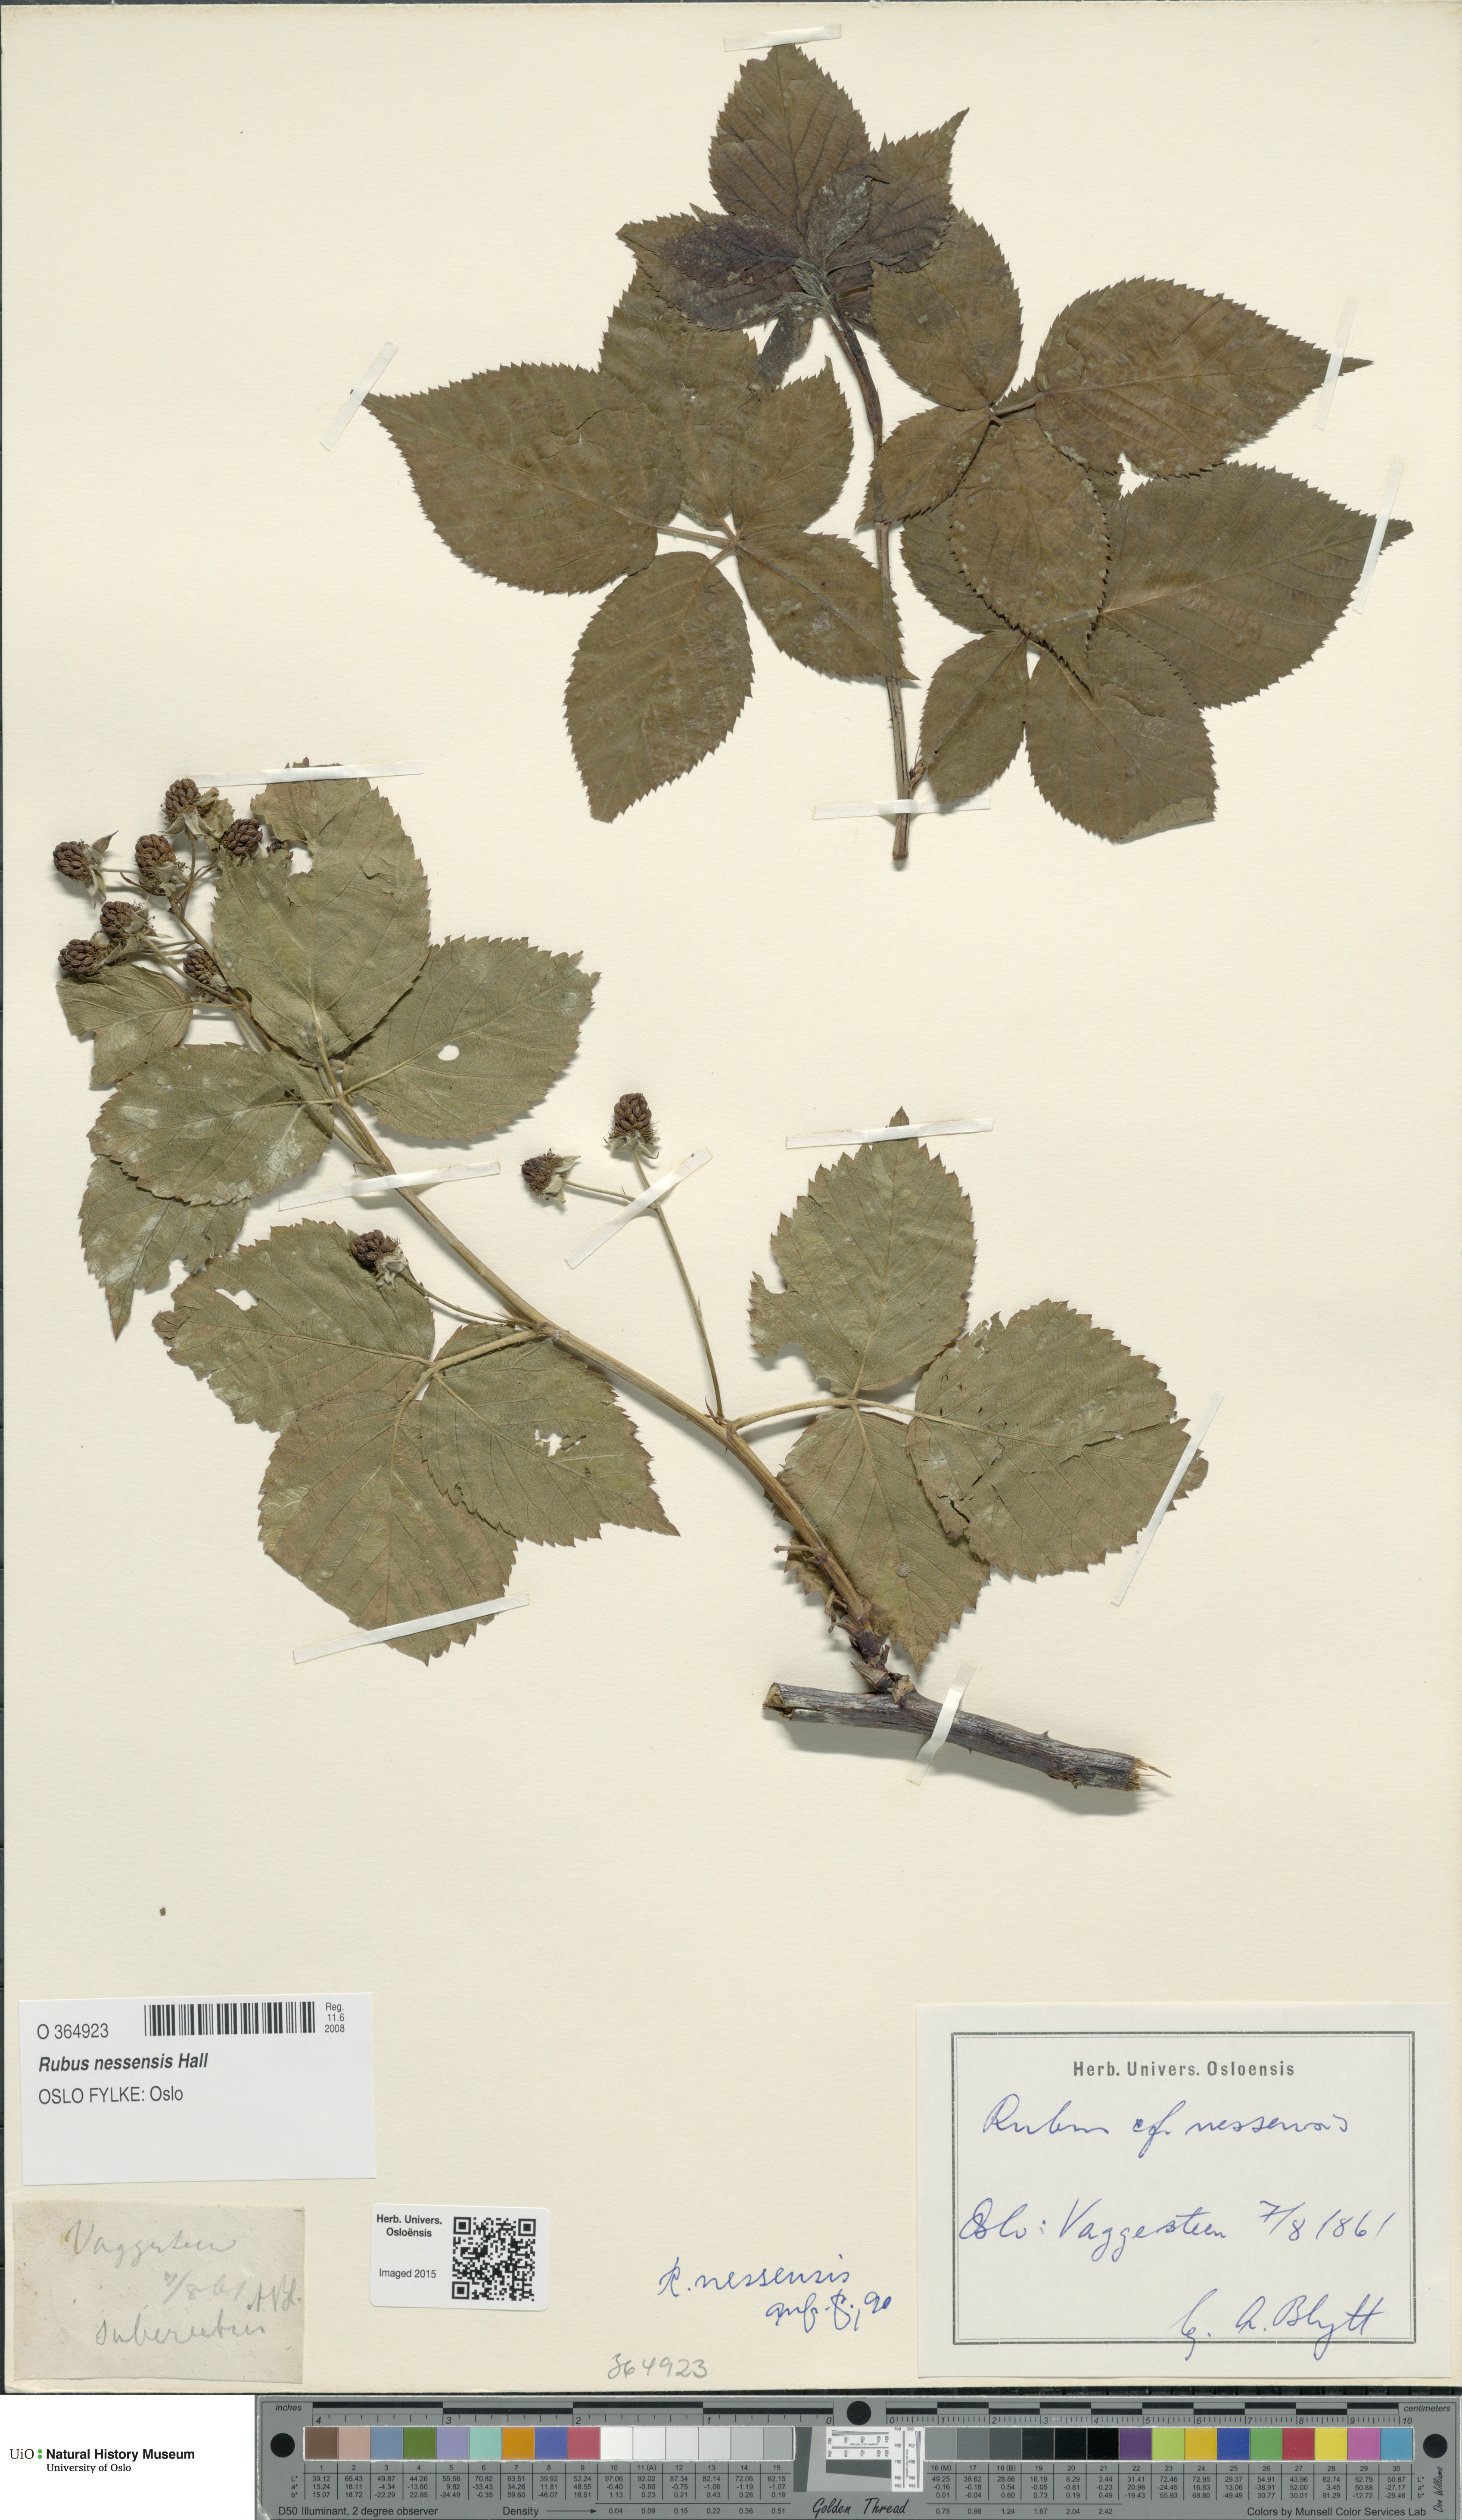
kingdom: Plantae
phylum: Tracheophyta
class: Magnoliopsida
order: Rosales
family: Rosaceae
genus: Rubus
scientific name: Rubus polonicus
